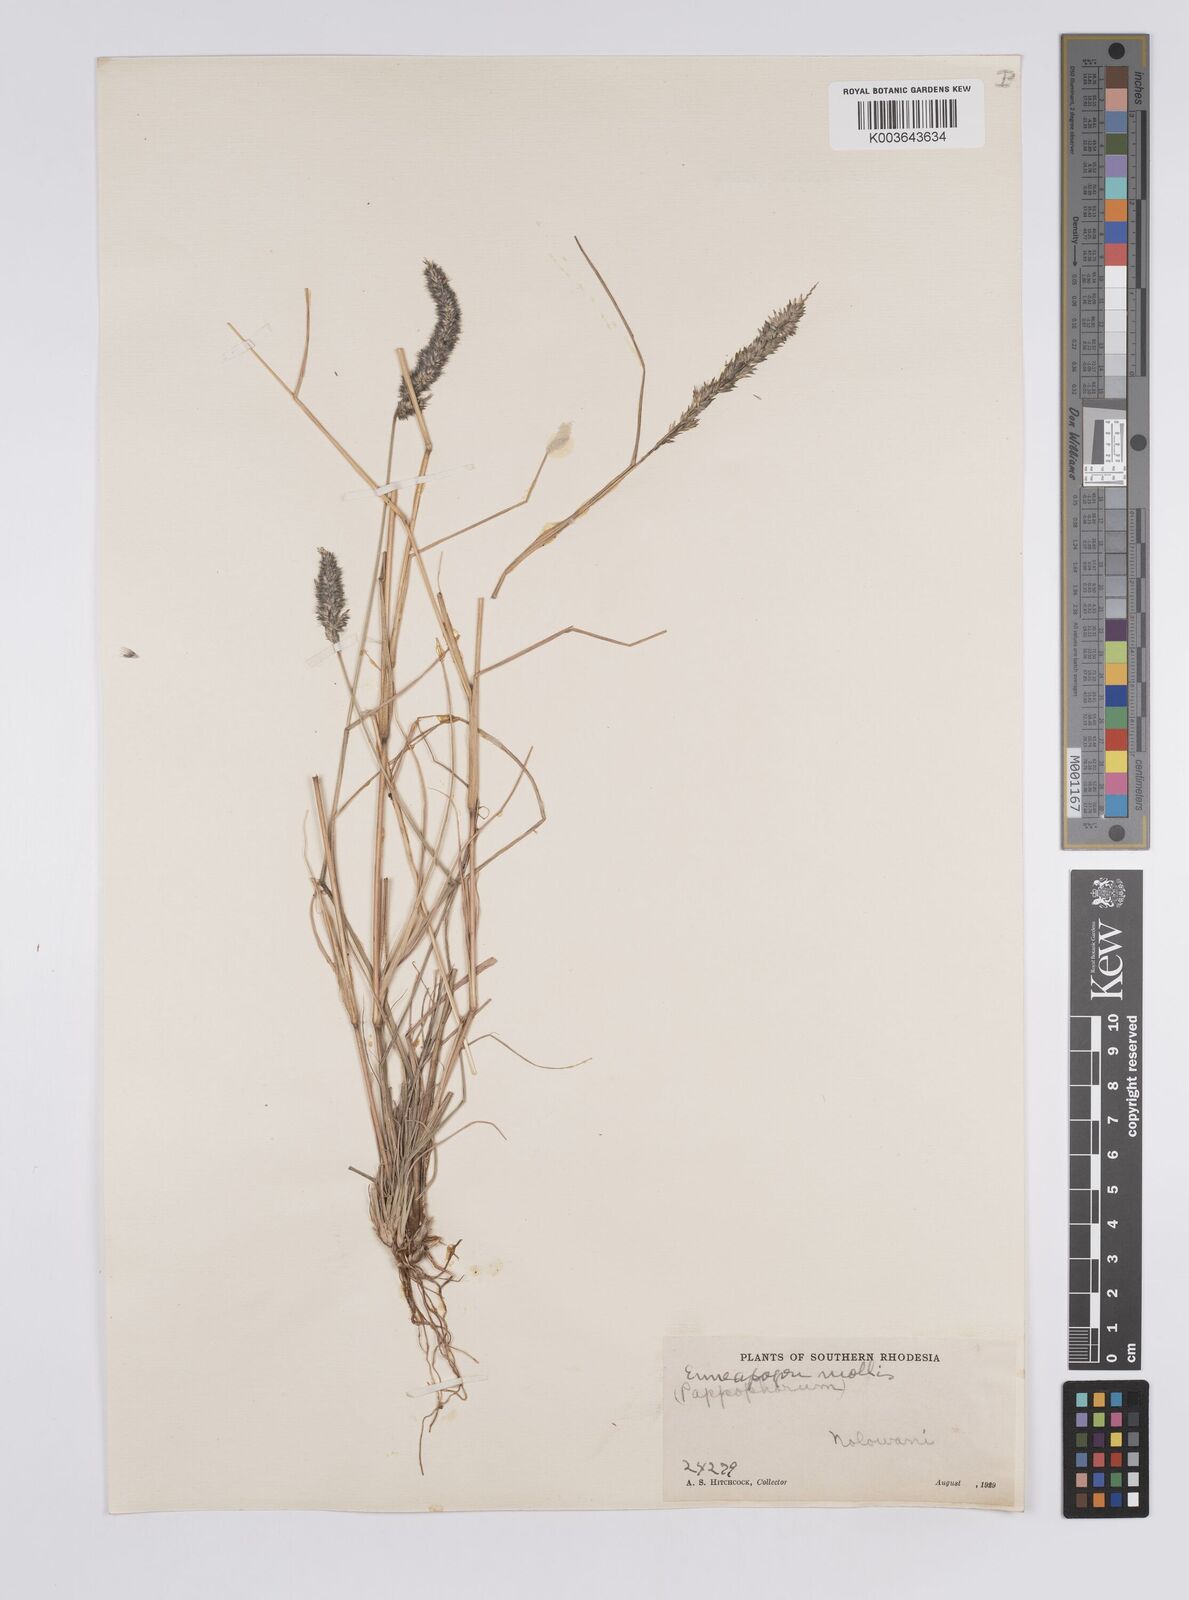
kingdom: Plantae
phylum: Tracheophyta
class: Liliopsida
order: Poales
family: Poaceae
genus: Enneapogon
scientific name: Enneapogon cenchroides
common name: Soft feather pappusgrass
